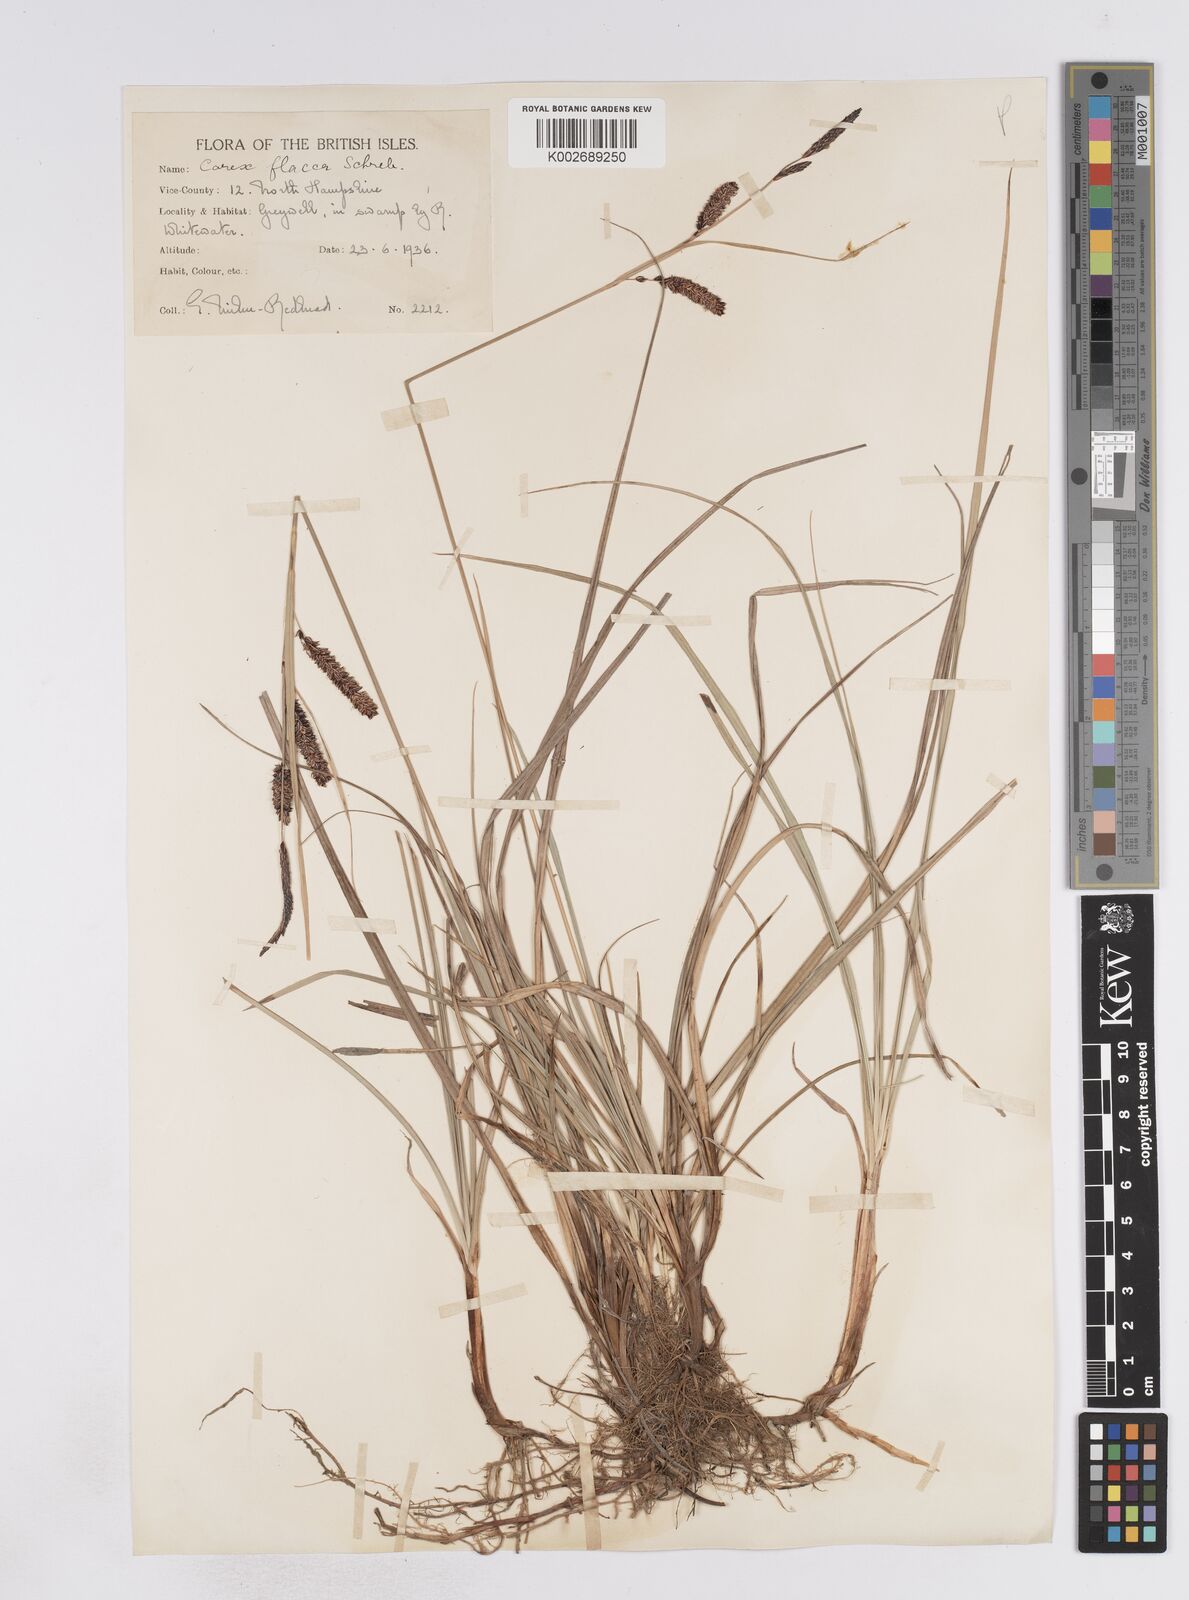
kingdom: Plantae
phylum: Tracheophyta
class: Liliopsida
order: Poales
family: Cyperaceae
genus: Carex
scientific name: Carex flacca
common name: Glaucous sedge
